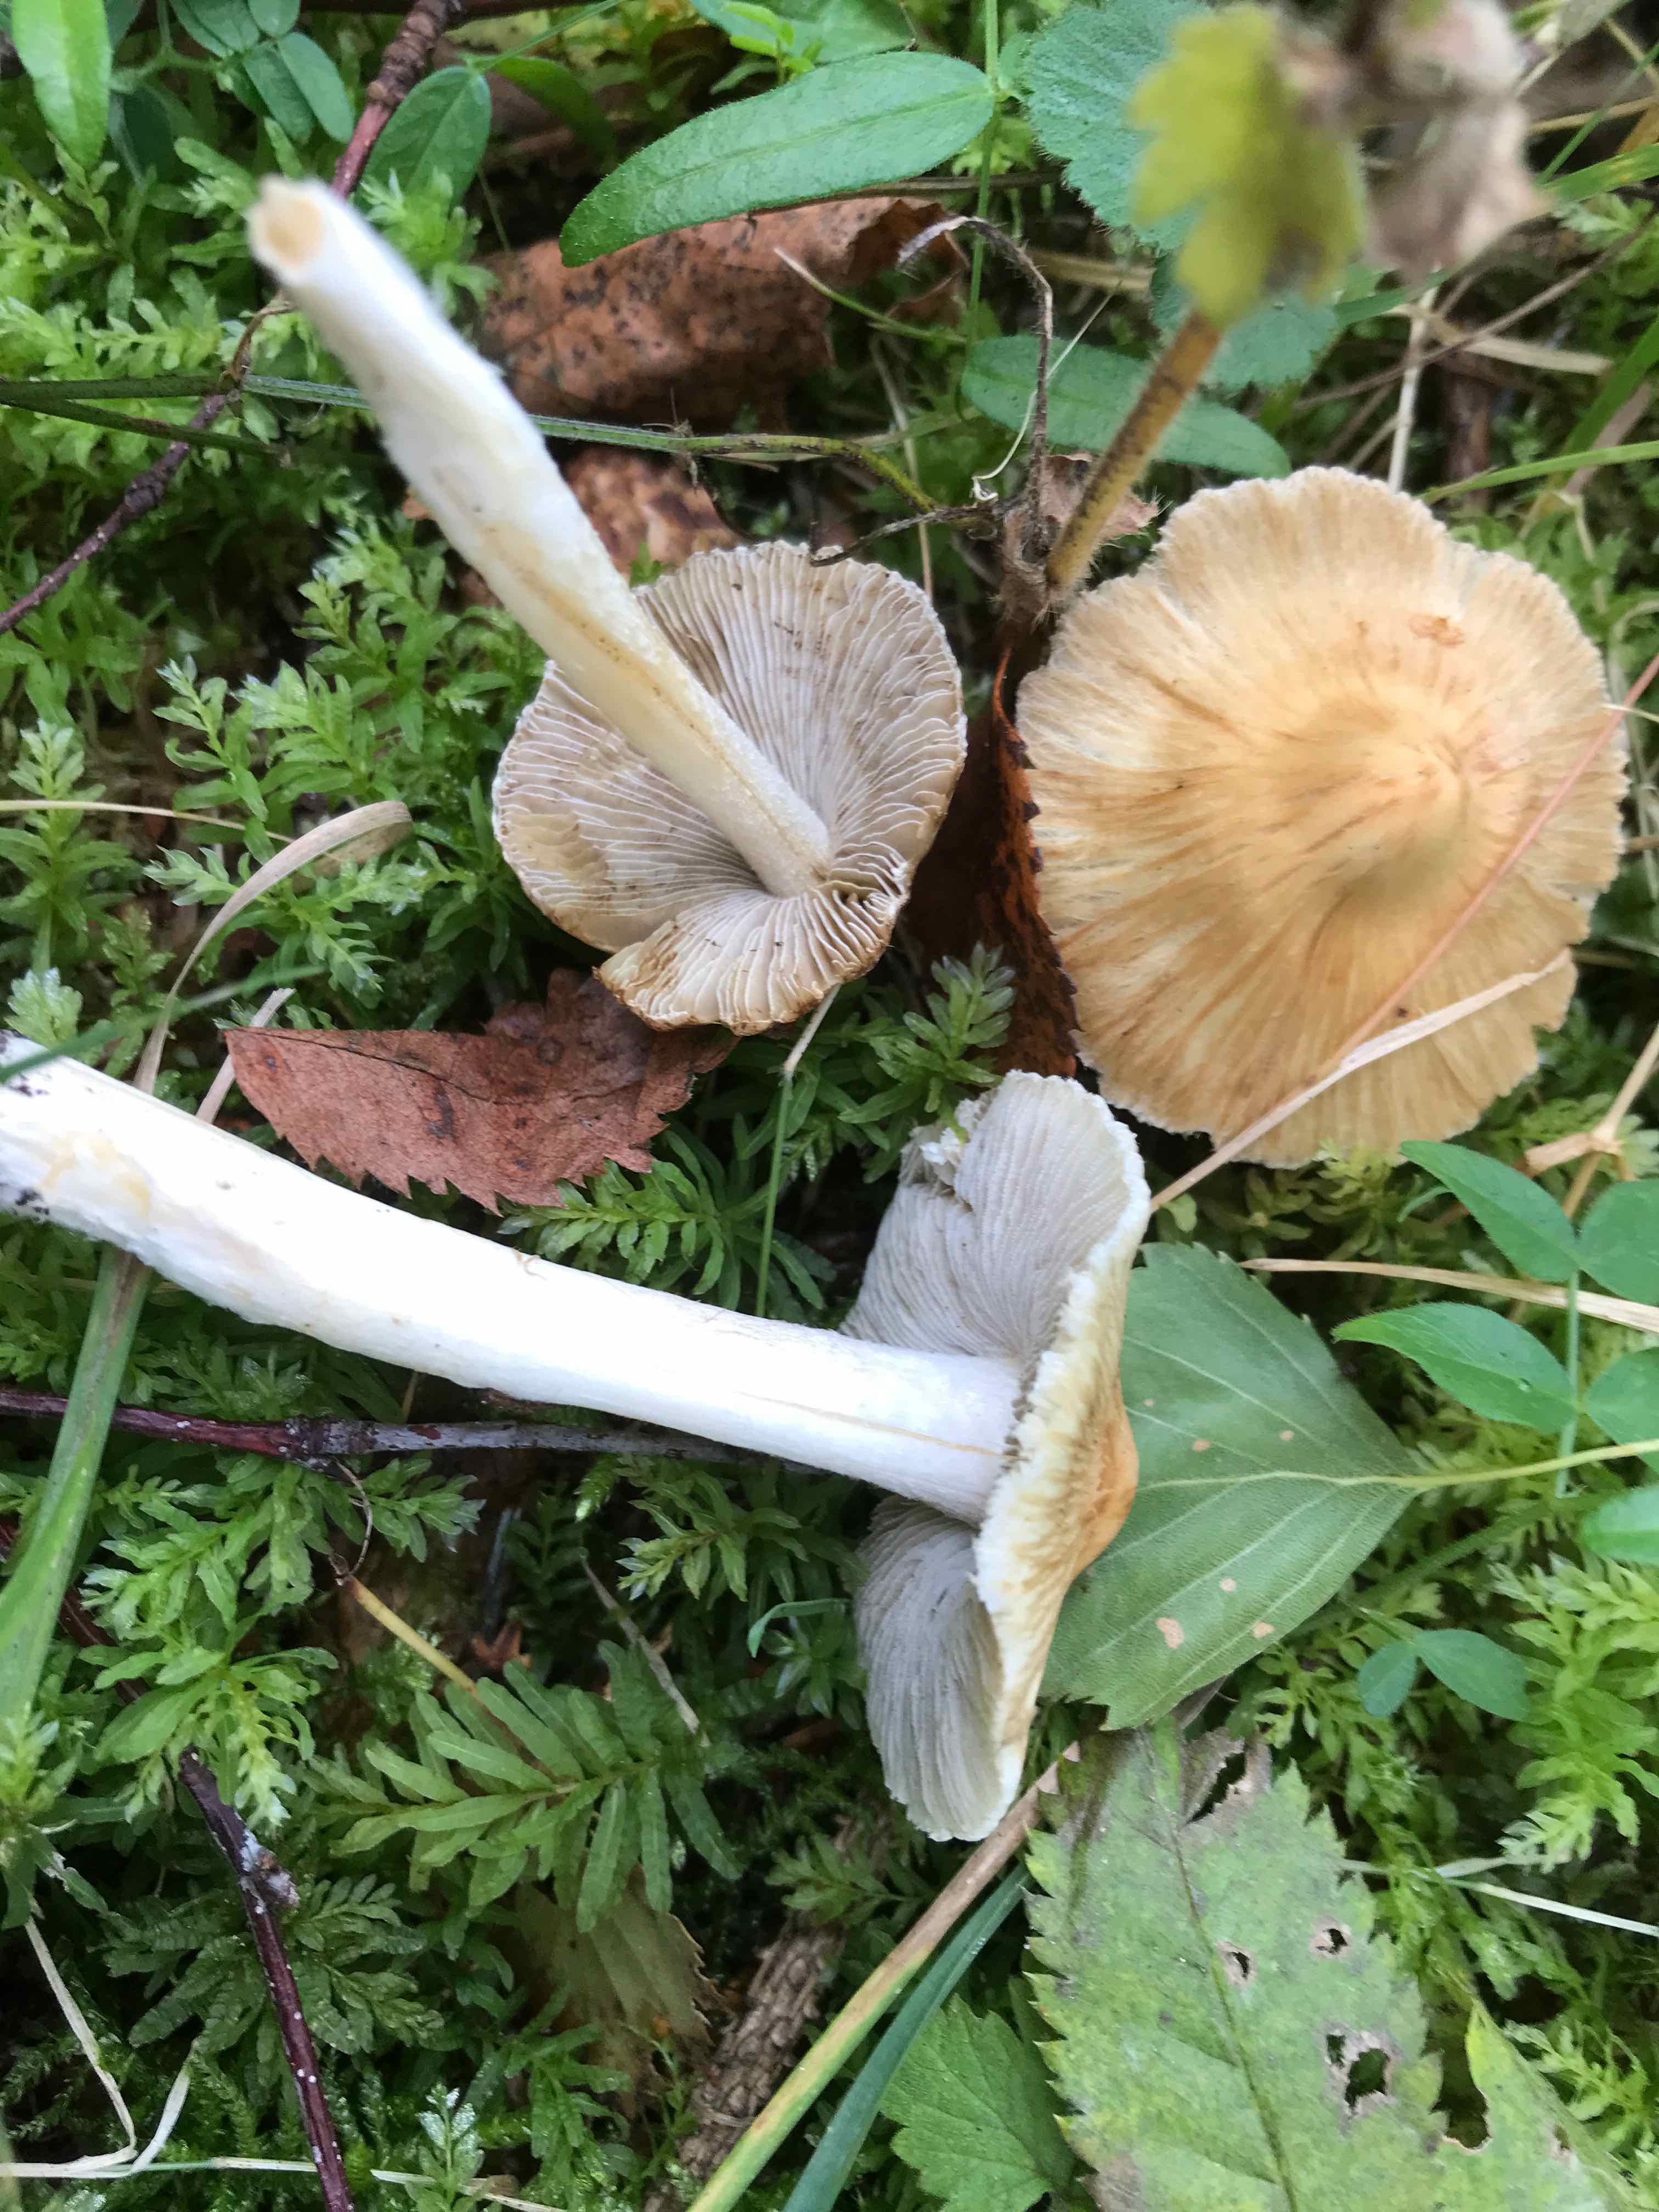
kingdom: Fungi
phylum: Basidiomycota
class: Agaricomycetes
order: Agaricales
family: Inocybaceae
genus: Pseudosperma
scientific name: Pseudosperma
